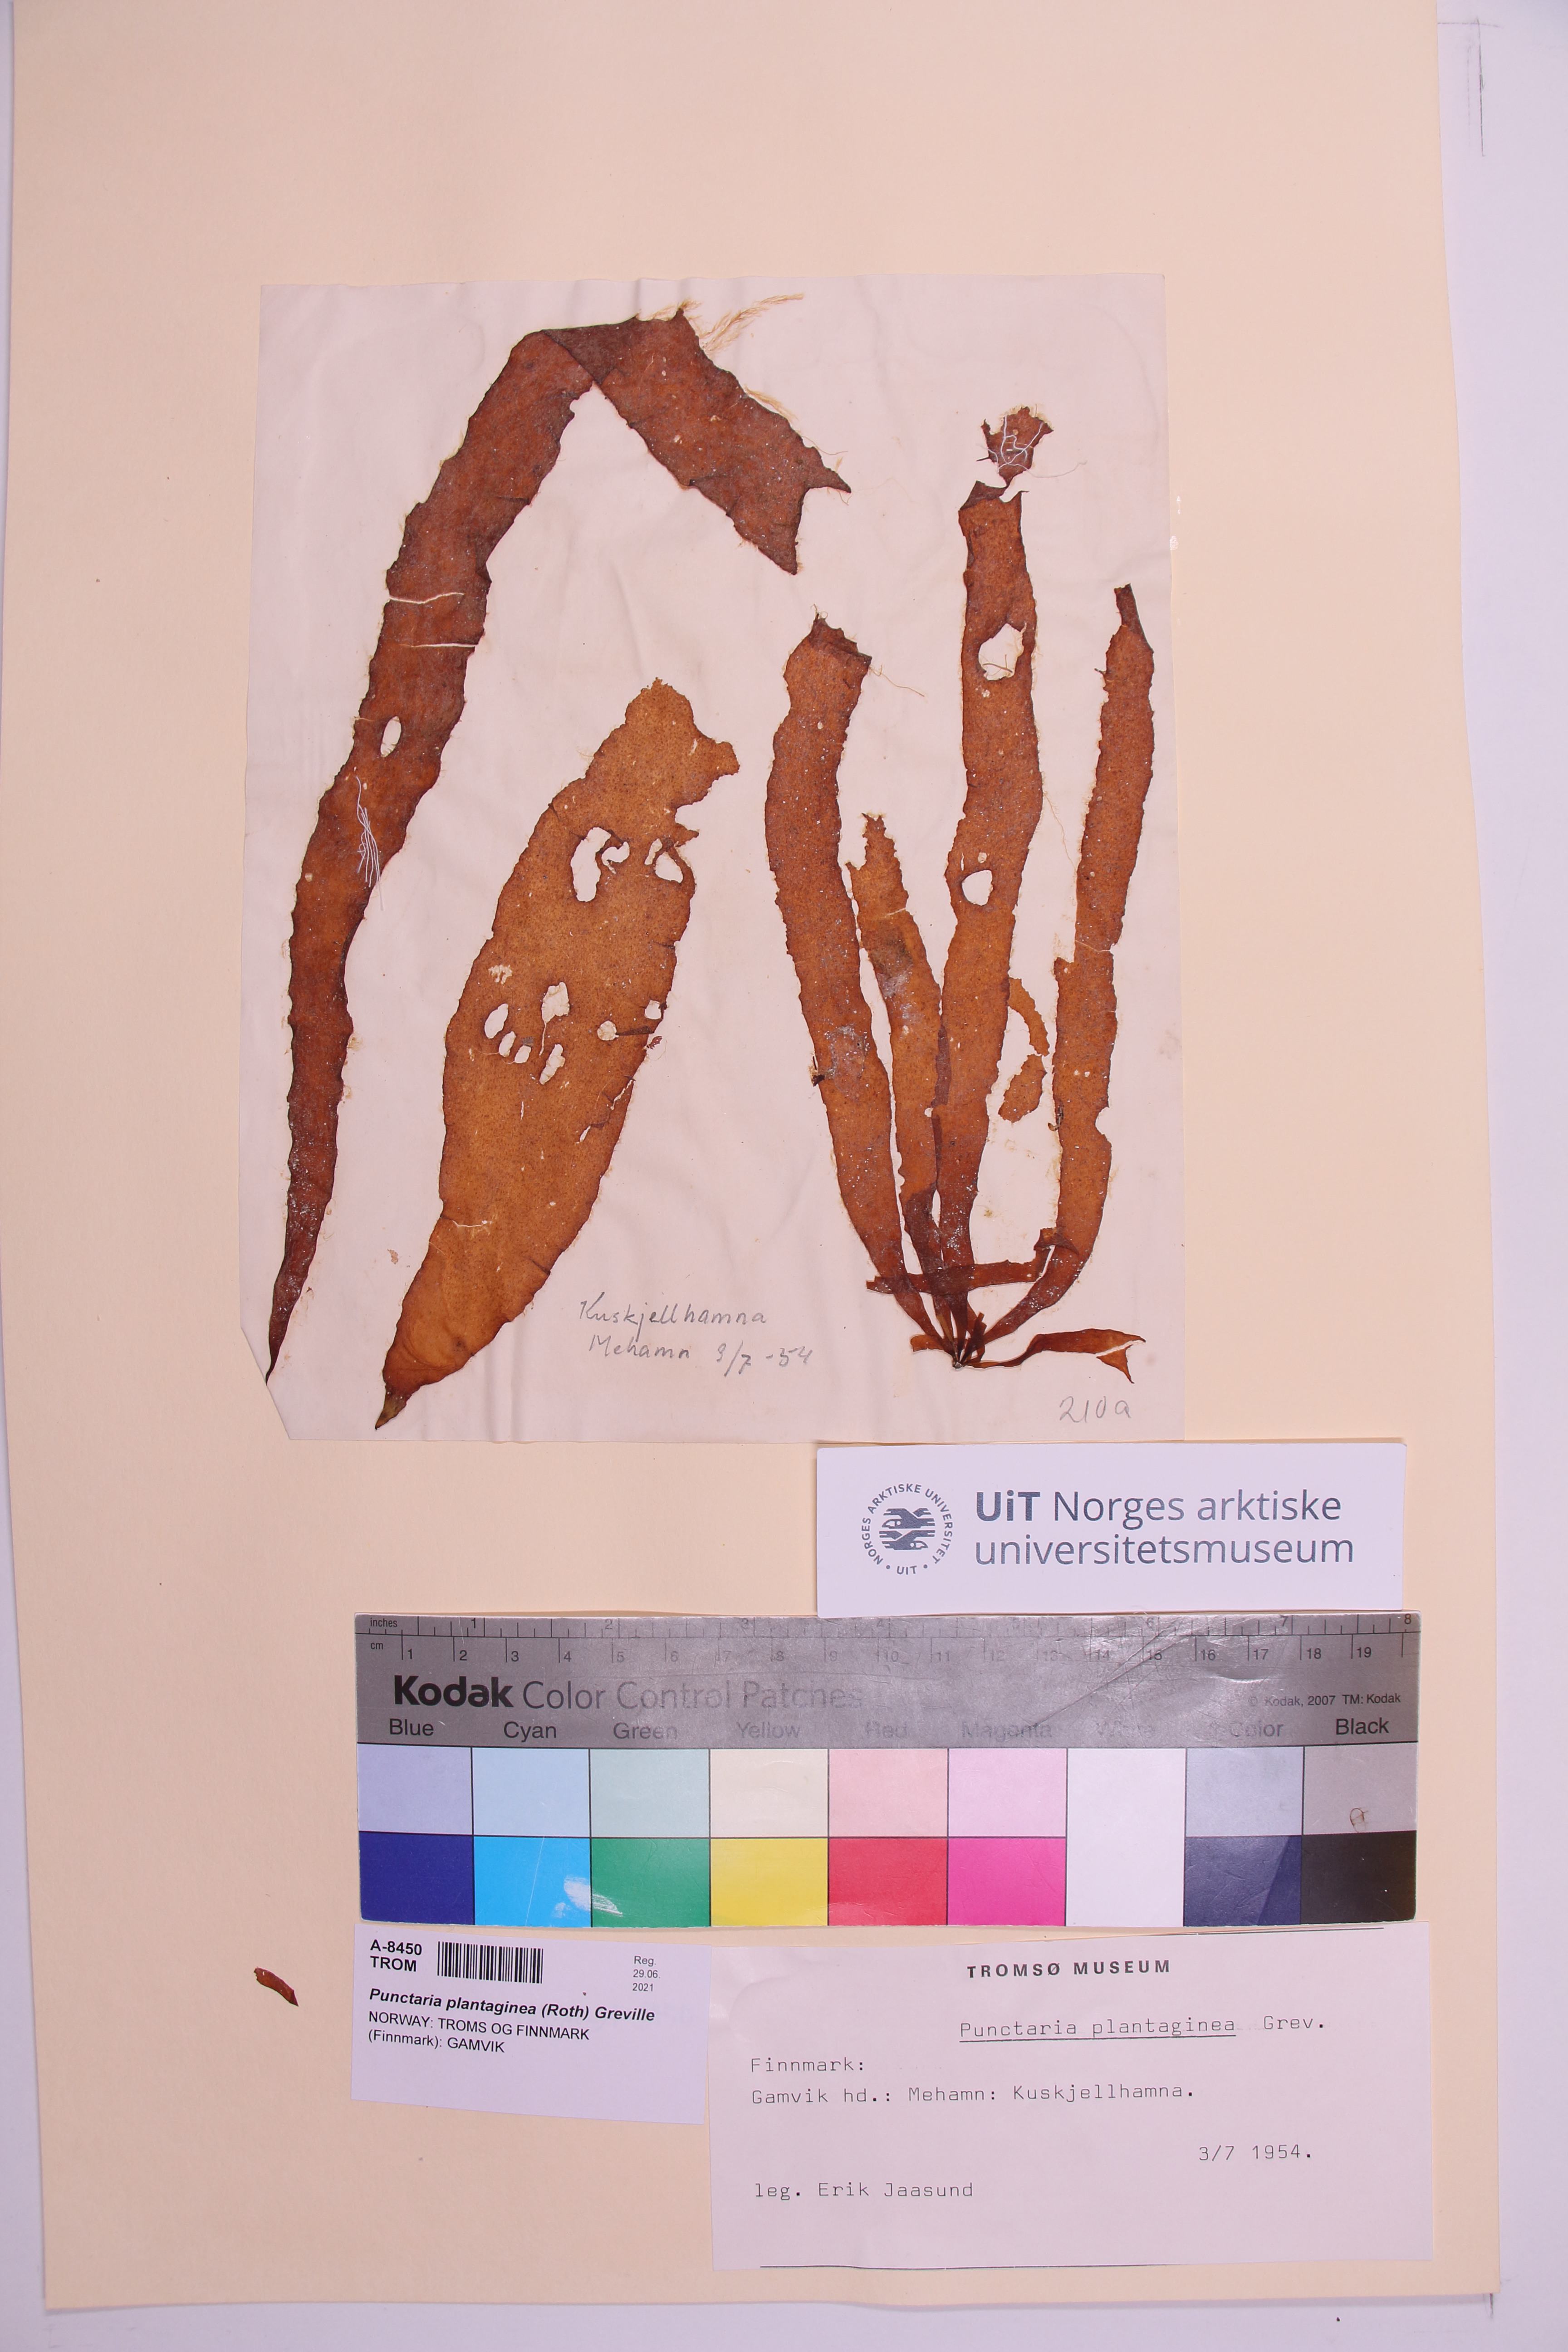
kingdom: Chromista
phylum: Ochrophyta
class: Phaeophyceae
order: Ectocarpales
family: Chordariaceae
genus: Punctaria
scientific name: Punctaria plantaginea
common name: Ribbon weed
